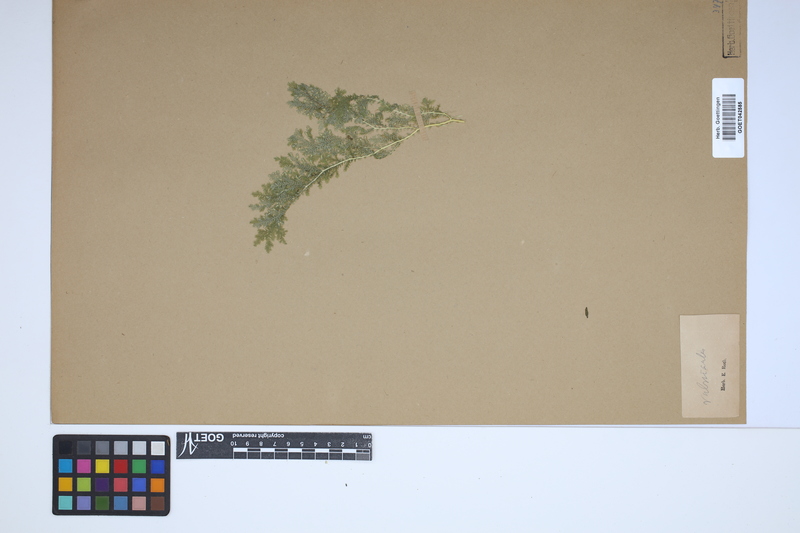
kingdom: Plantae
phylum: Tracheophyta
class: Lycopodiopsida
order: Selaginellales
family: Selaginellaceae
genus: Selaginella
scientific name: Selaginella molliceps
